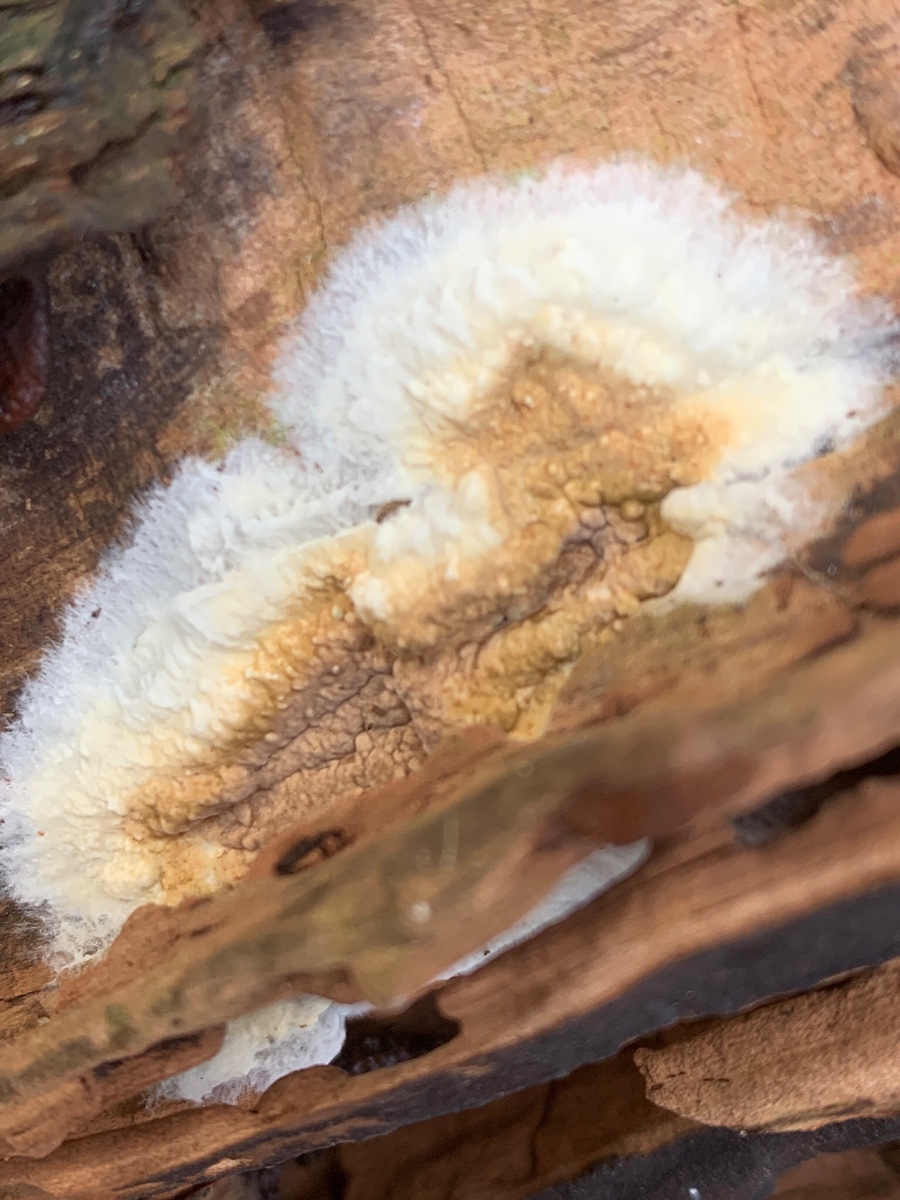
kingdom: Fungi
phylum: Basidiomycota
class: Agaricomycetes
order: Boletales
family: Coniophoraceae
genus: Coniophora
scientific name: Coniophora puteana
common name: gul tømmersvamp
